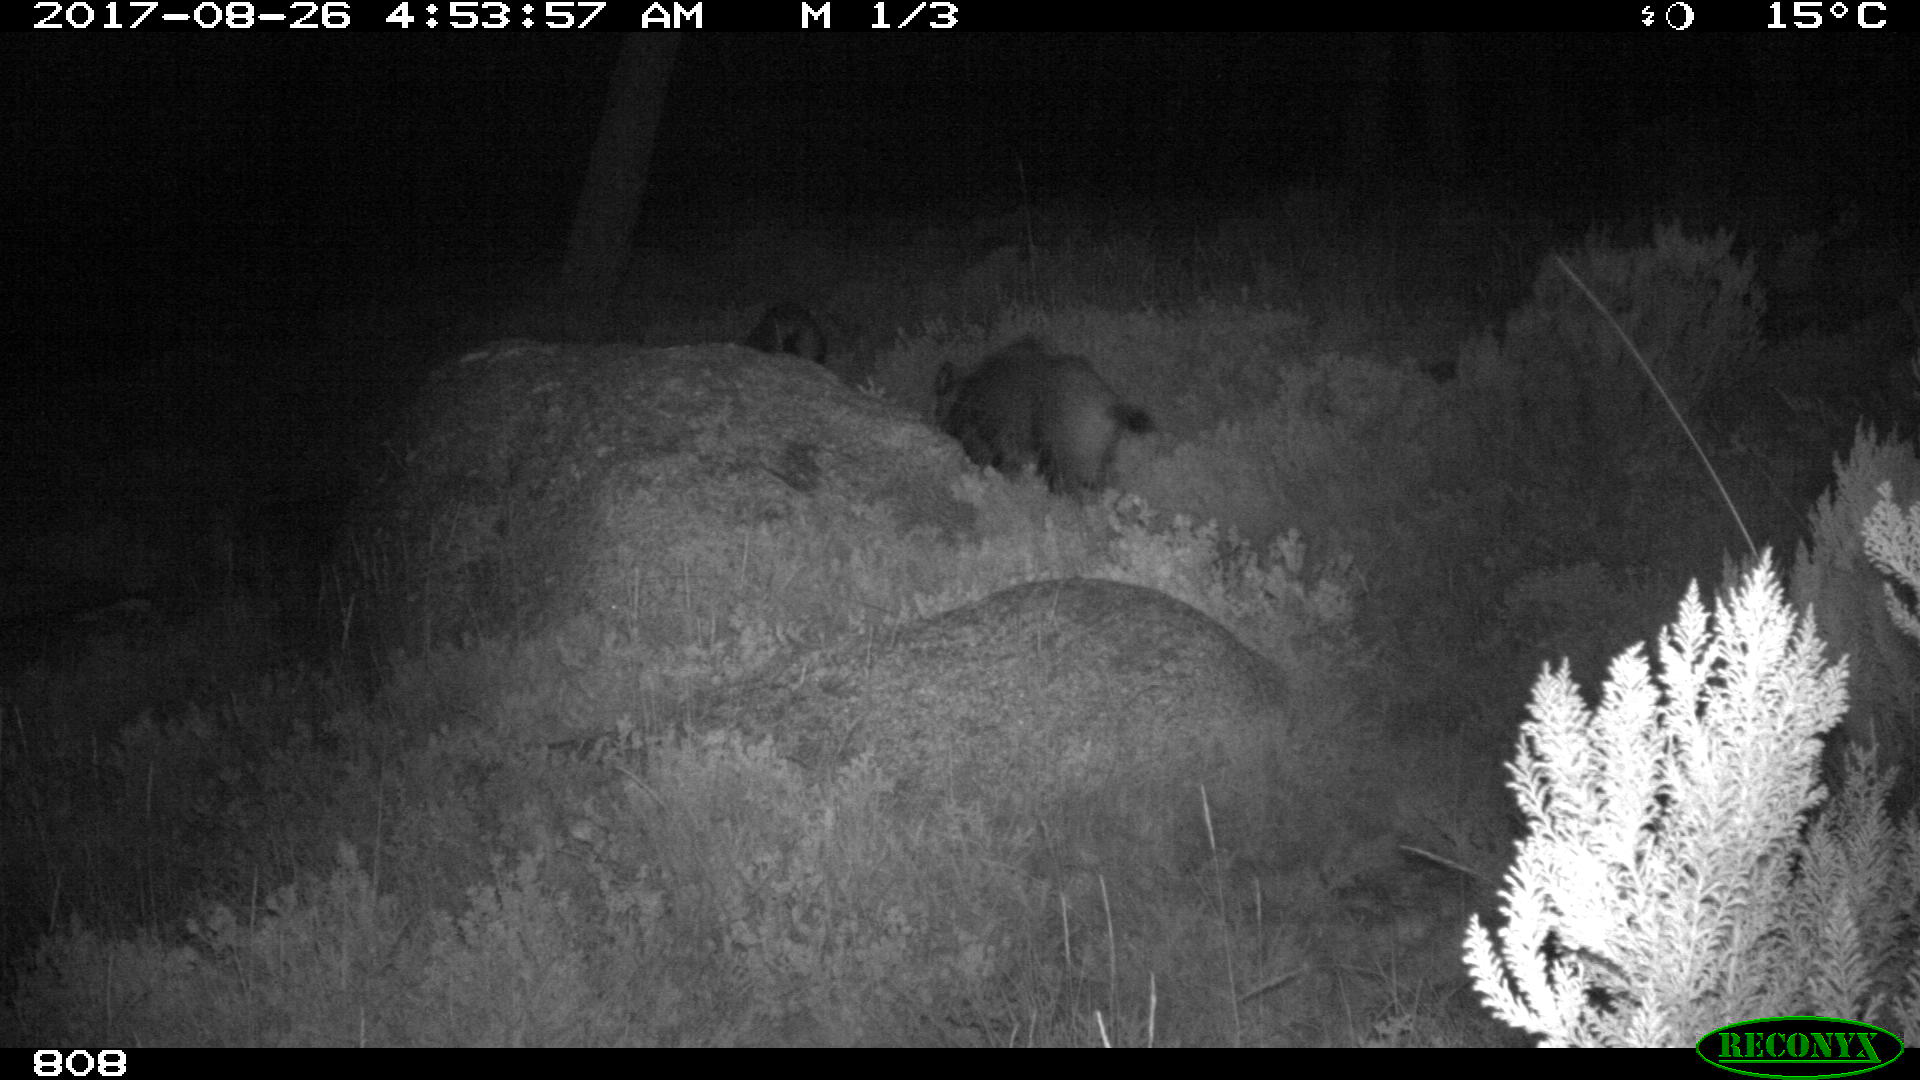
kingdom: Animalia
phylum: Chordata
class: Mammalia
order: Artiodactyla
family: Suidae
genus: Sus
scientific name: Sus scrofa
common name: Wild boar
